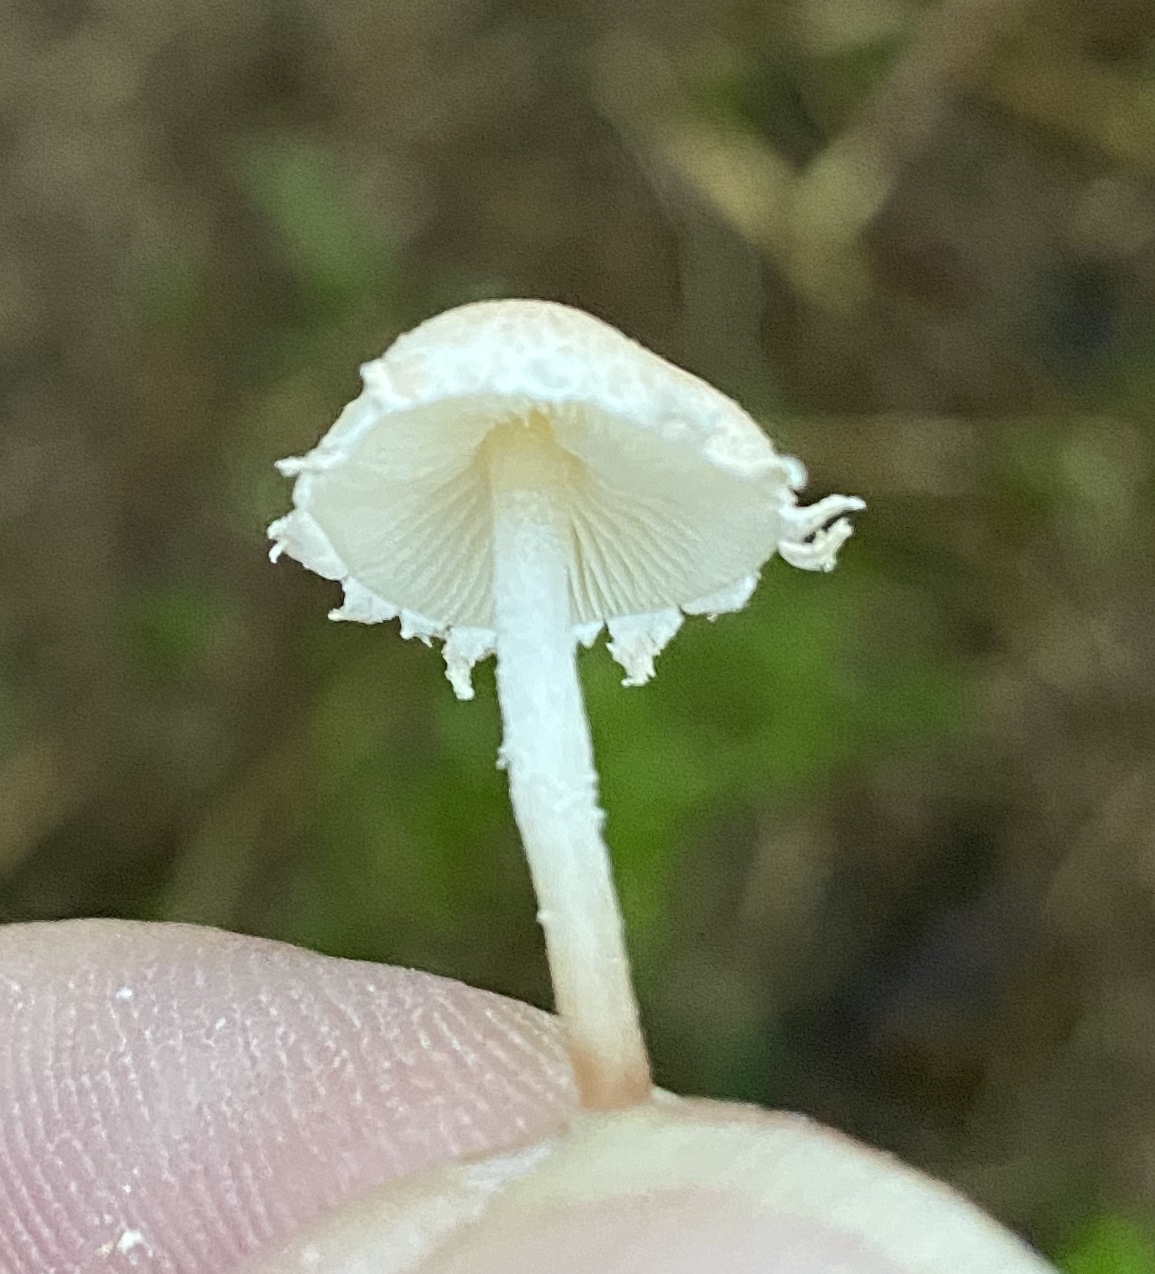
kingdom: Fungi
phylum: Basidiomycota
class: Agaricomycetes
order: Agaricales
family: Agaricaceae
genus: Cystolepiota
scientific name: Cystolepiota seminuda
